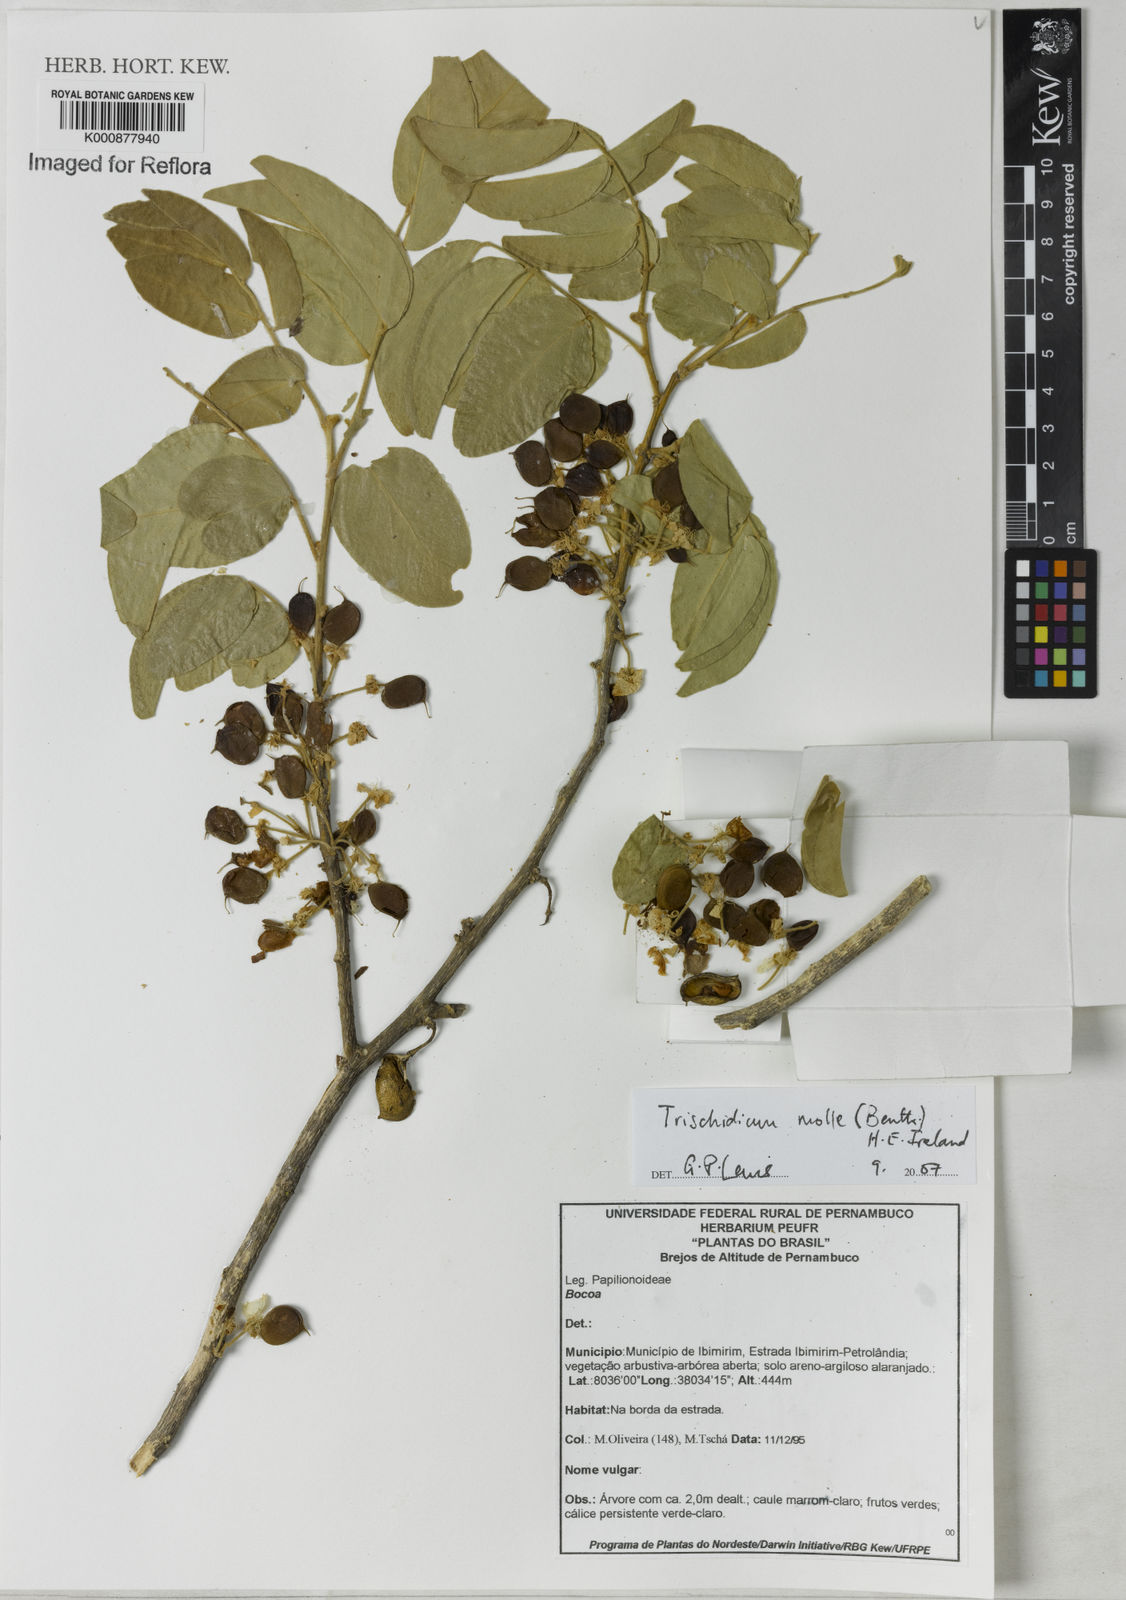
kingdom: Plantae
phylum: Tracheophyta
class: Magnoliopsida
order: Fabales
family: Fabaceae
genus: Trischidium
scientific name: Trischidium molle
